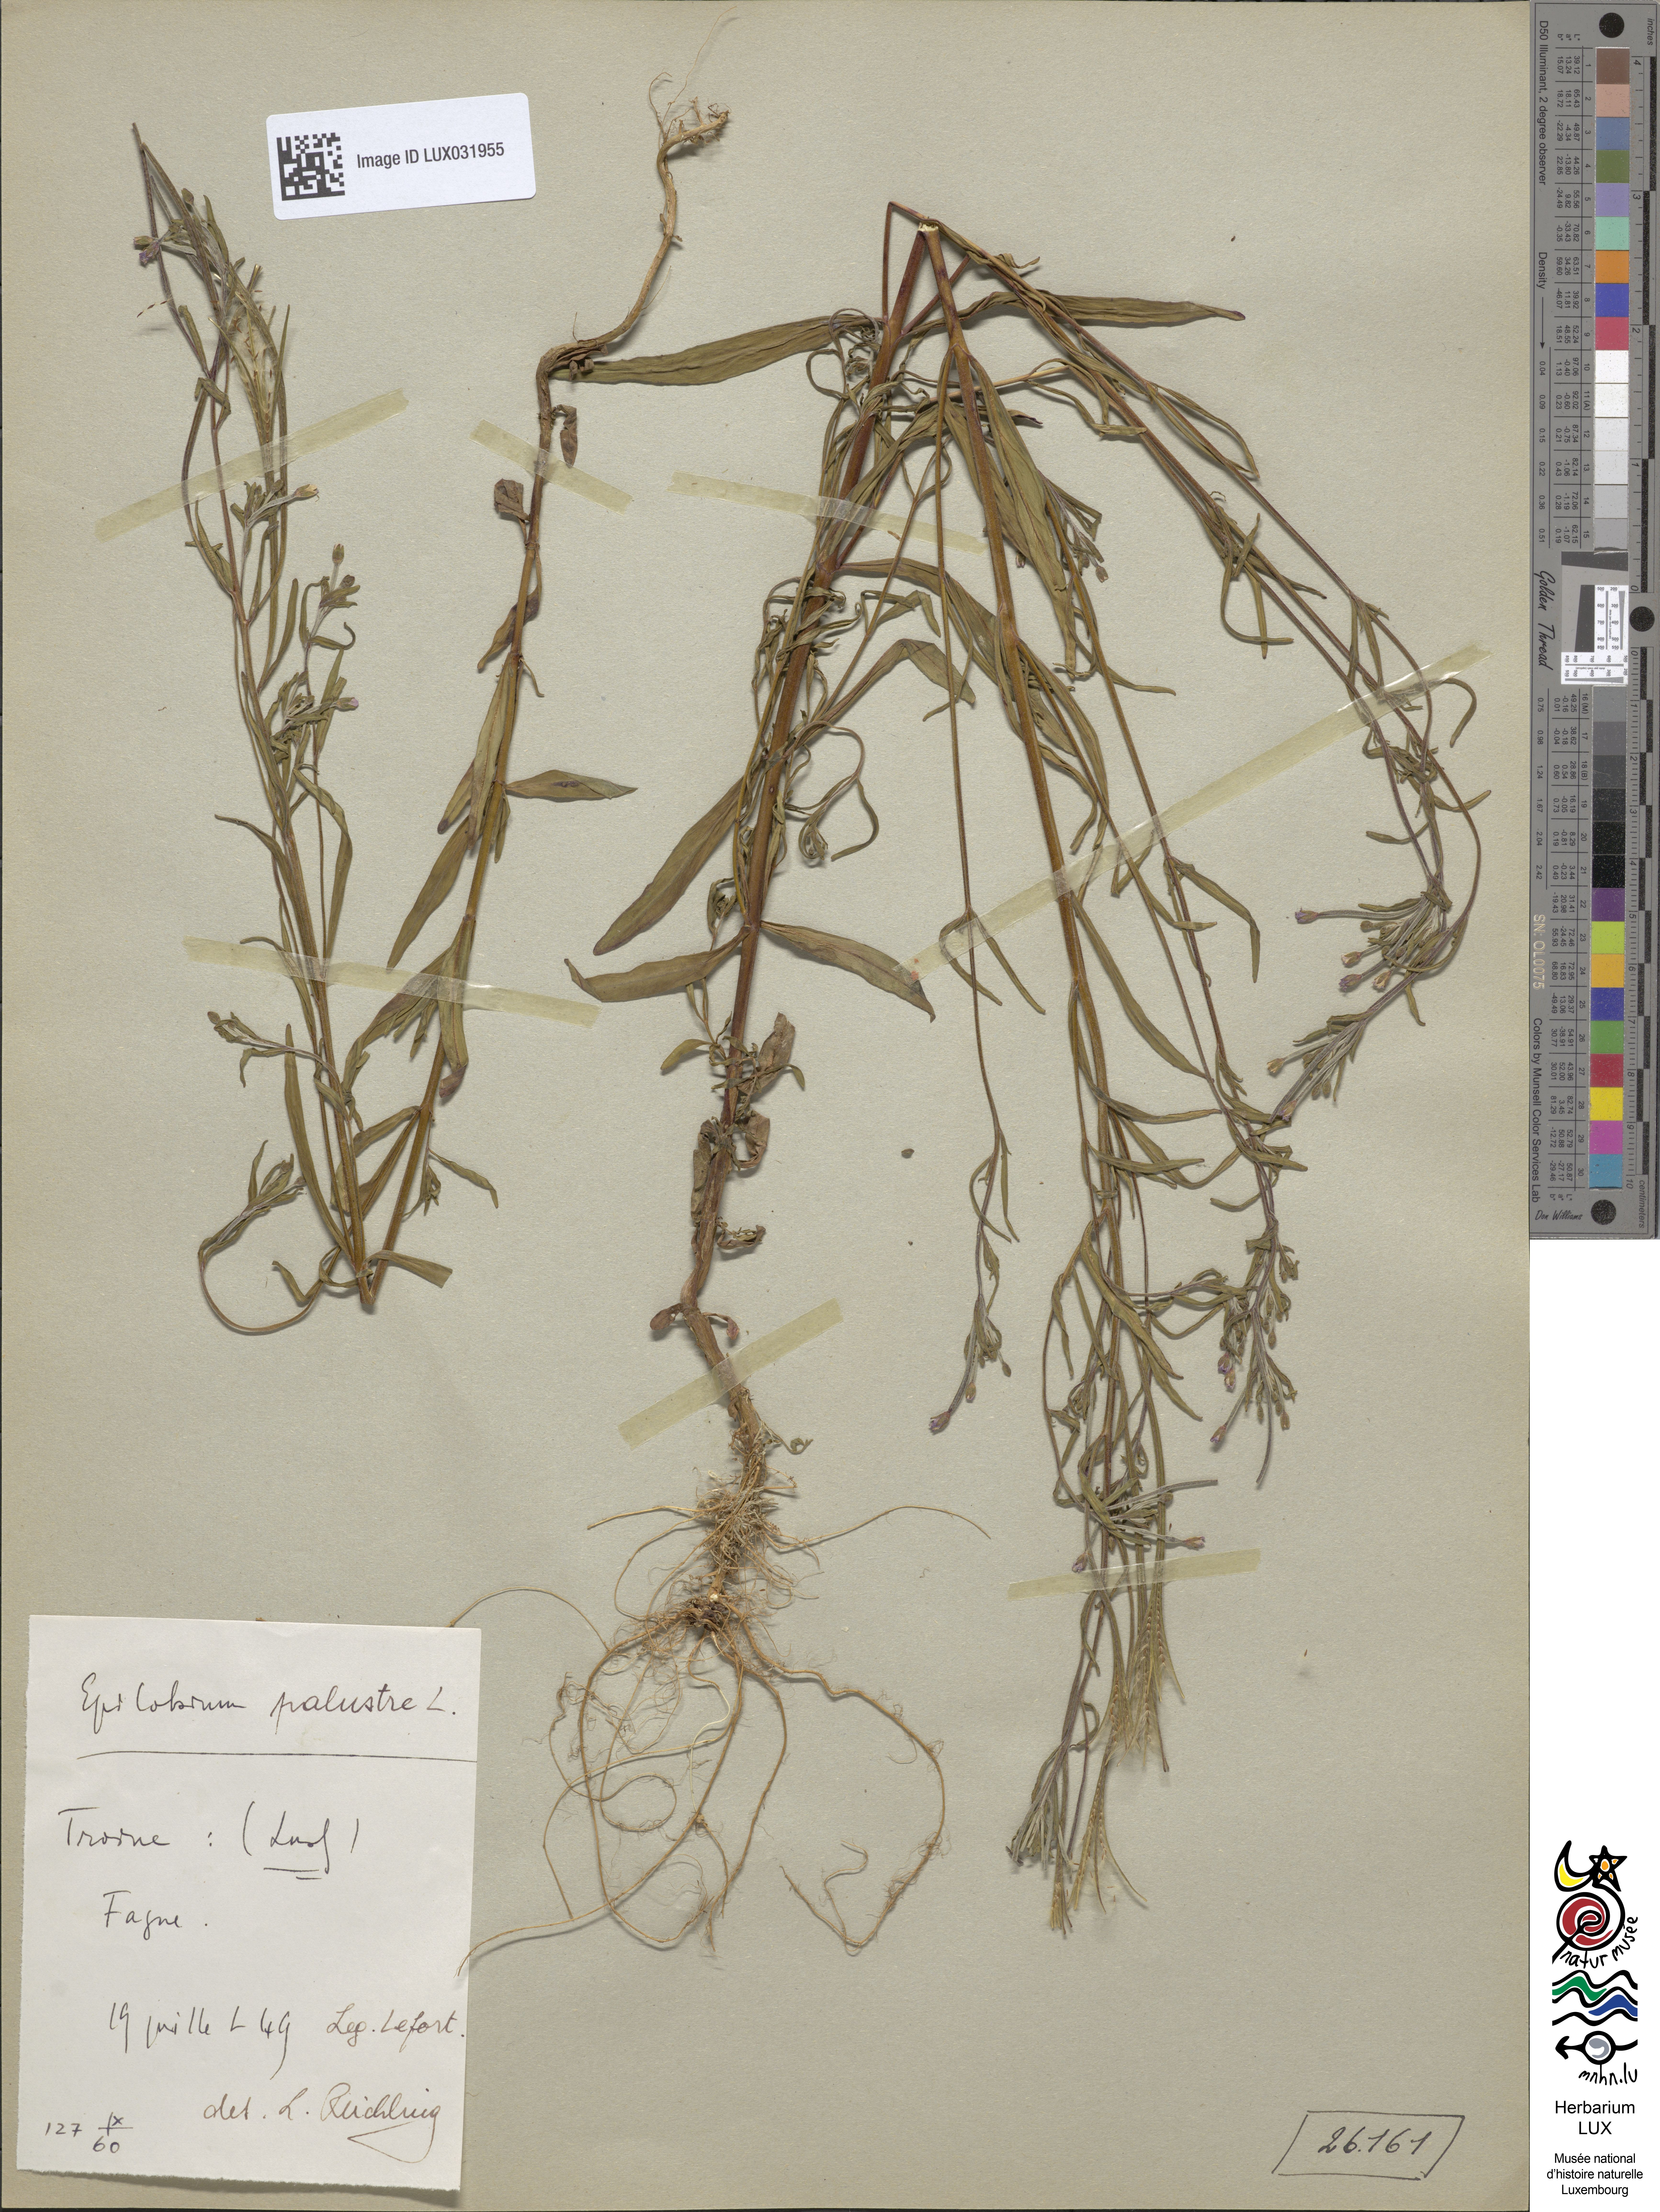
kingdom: Plantae
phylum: Tracheophyta
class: Magnoliopsida
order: Myrtales
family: Onagraceae
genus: Epilobium
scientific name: Epilobium palustre
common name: Marsh willowherb
